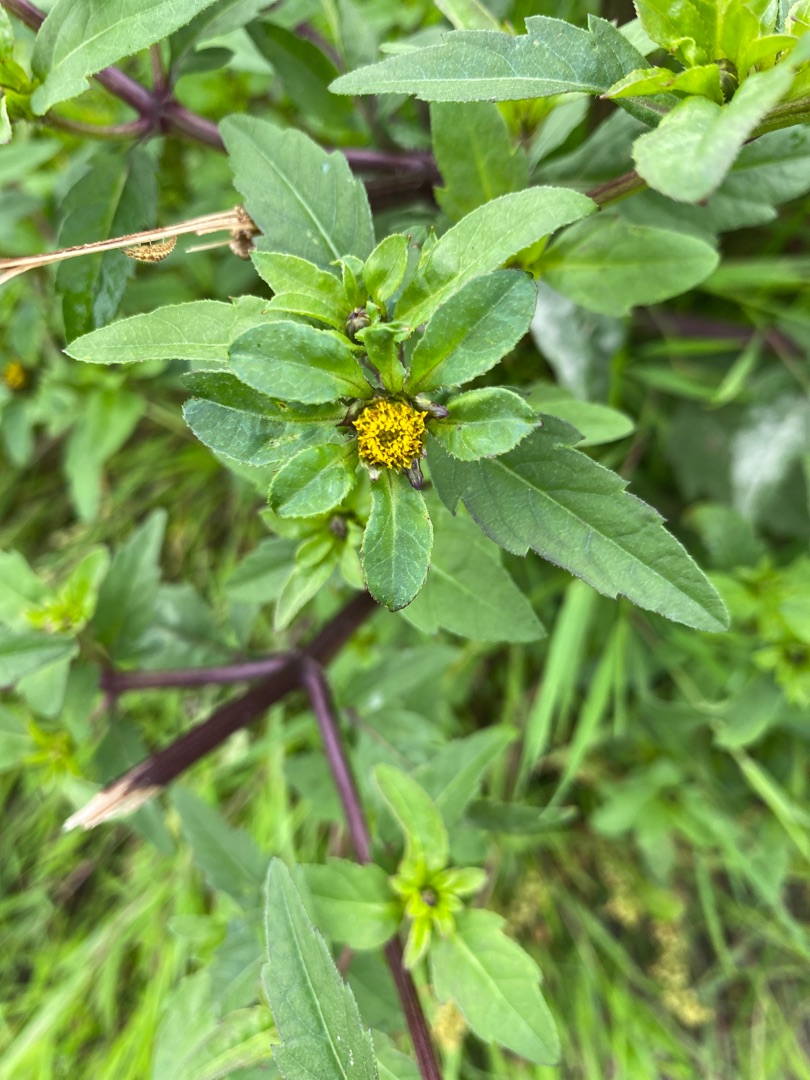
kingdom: Plantae
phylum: Tracheophyta
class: Magnoliopsida
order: Asterales
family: Asteraceae
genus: Bidens
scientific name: Bidens tripartita
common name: Fliget brøndsel
